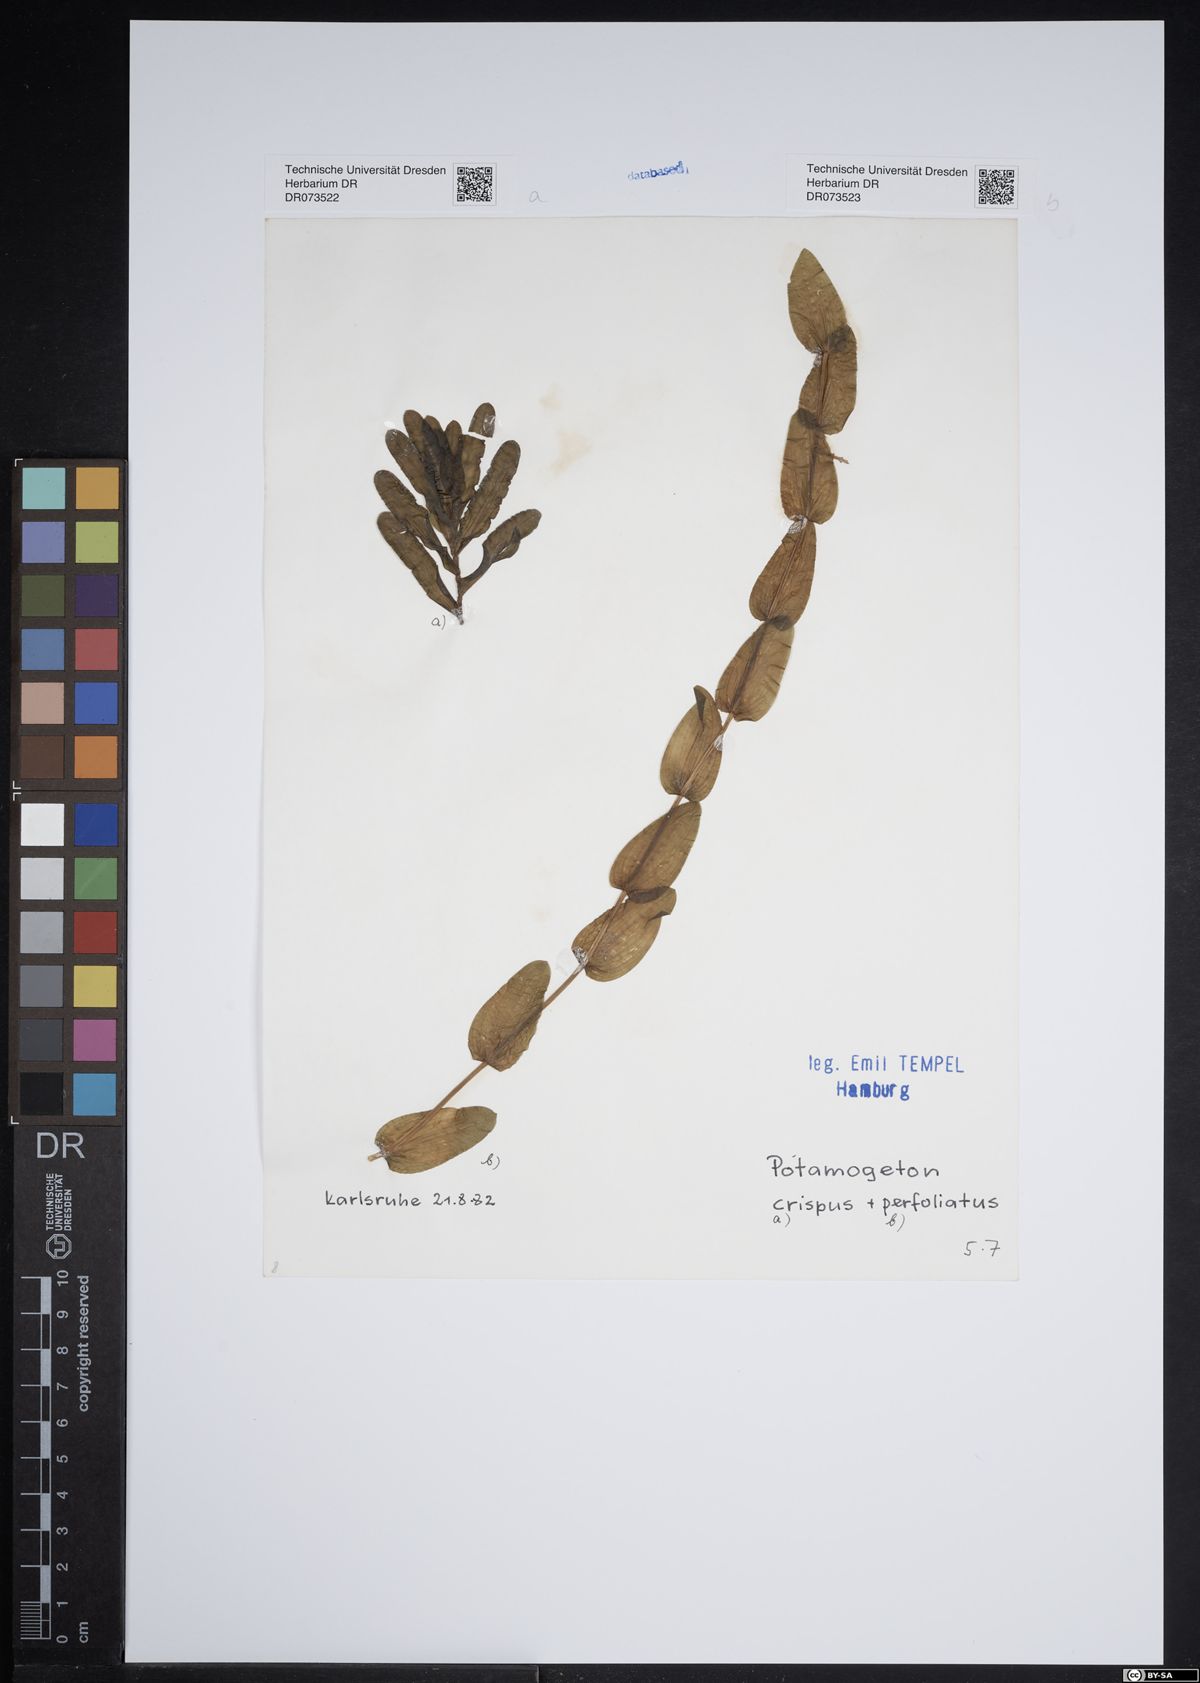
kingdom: Plantae
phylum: Tracheophyta
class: Liliopsida
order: Alismatales
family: Potamogetonaceae
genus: Potamogeton
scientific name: Potamogeton crispus
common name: Curled pondweed
